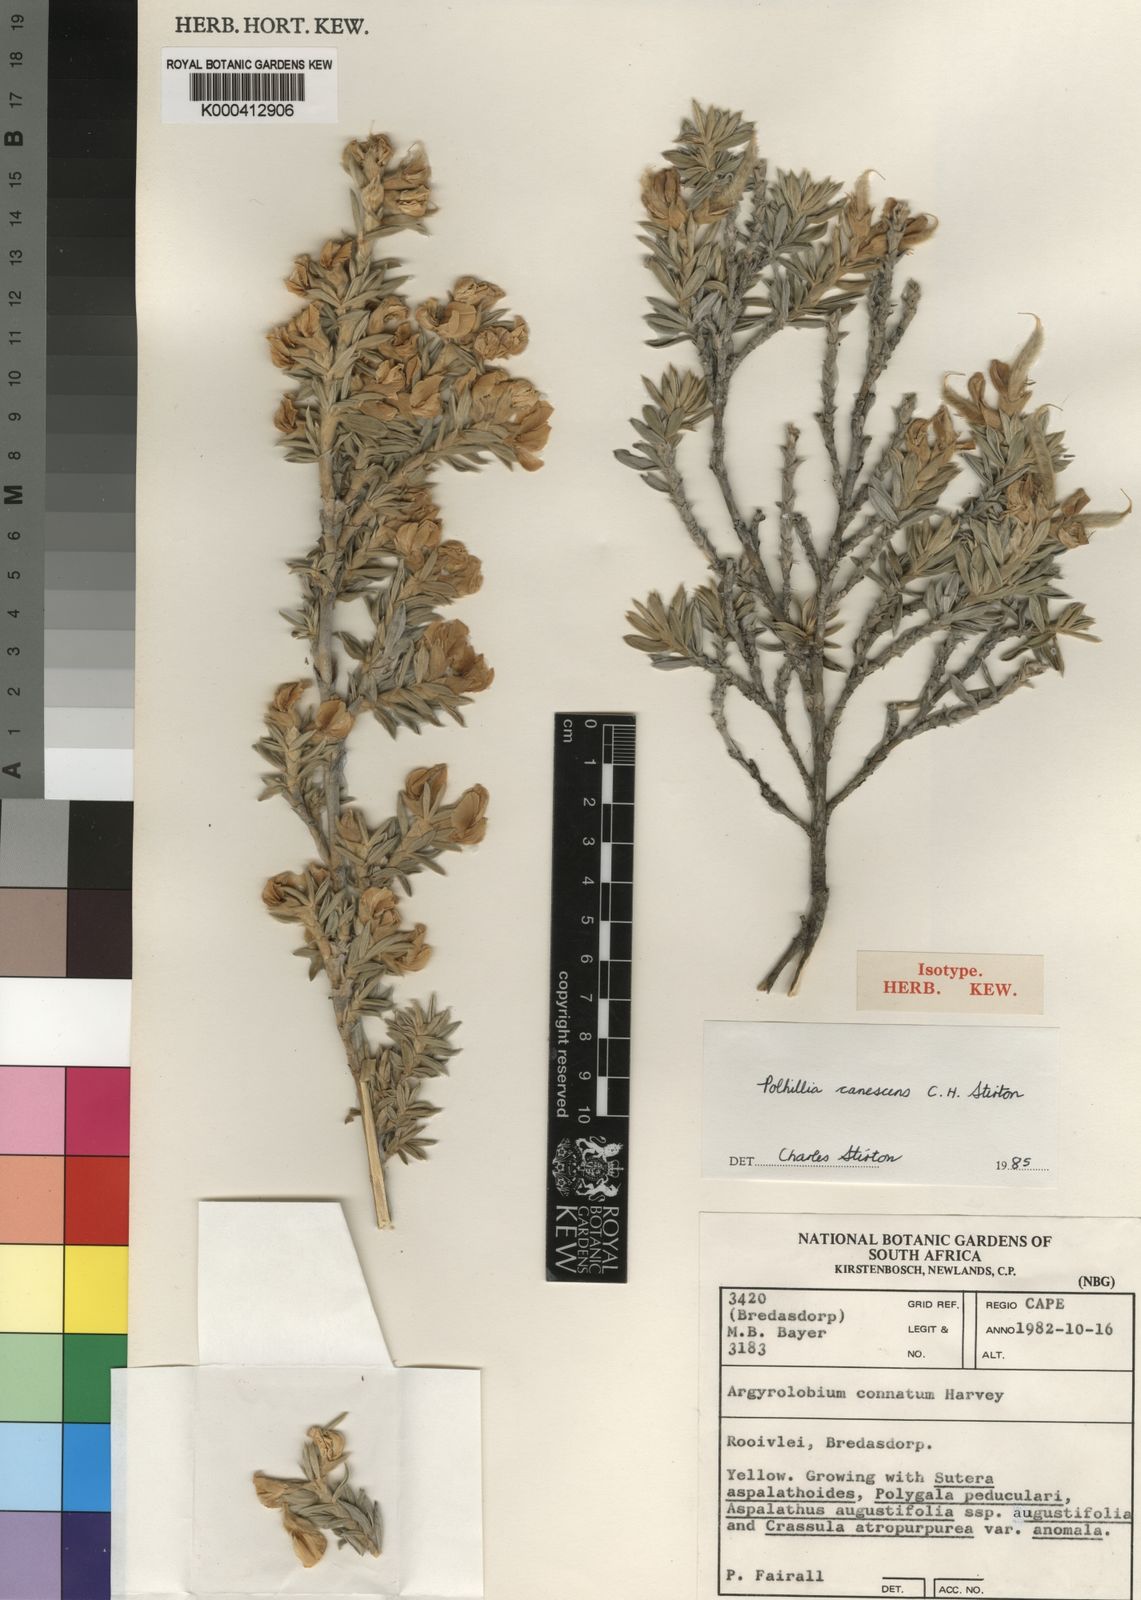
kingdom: Plantae
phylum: Tracheophyta
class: Magnoliopsida
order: Fabales
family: Fabaceae
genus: Polhillia
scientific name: Polhillia connata
